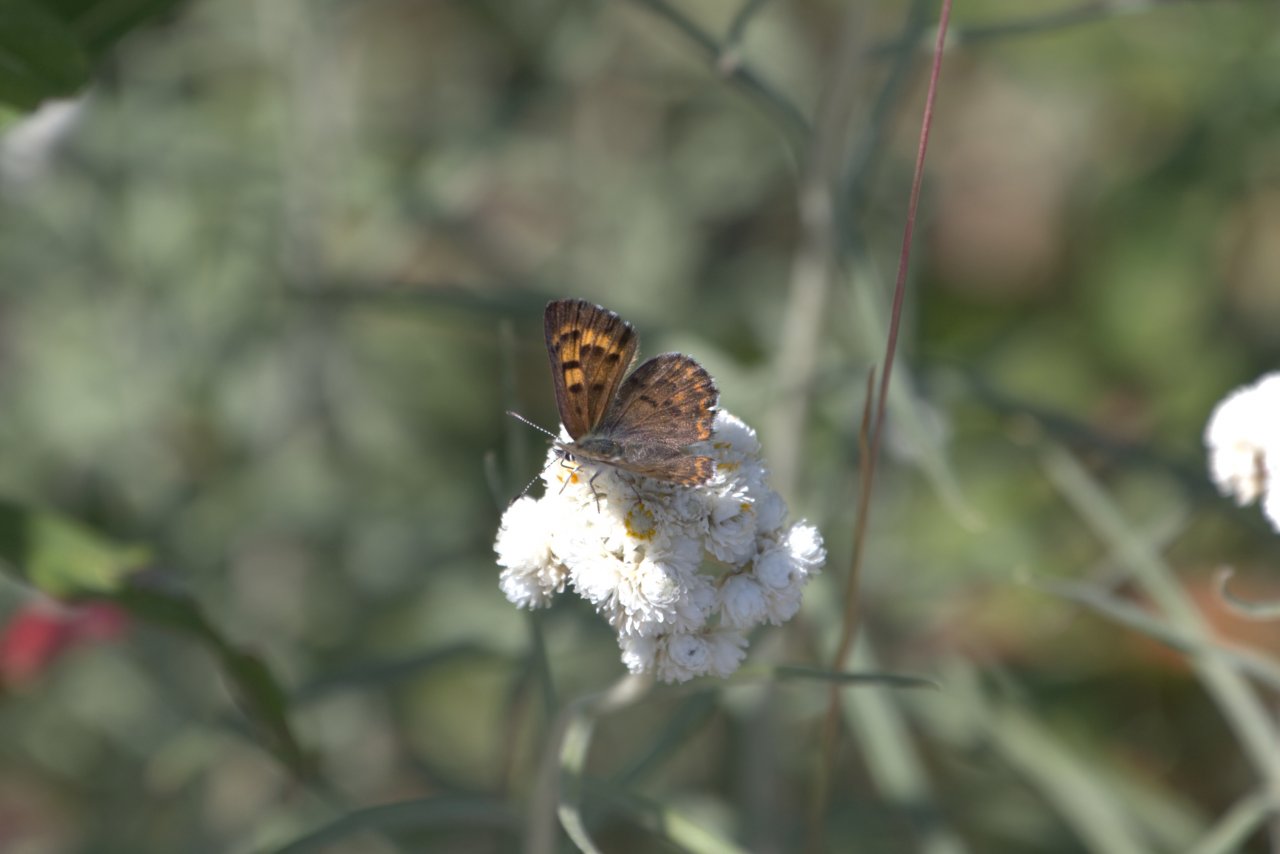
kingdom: Animalia
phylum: Arthropoda
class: Insecta
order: Lepidoptera
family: Lycaenidae
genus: Lycaena
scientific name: Lycaena mariposa
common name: Mariposa Copper
